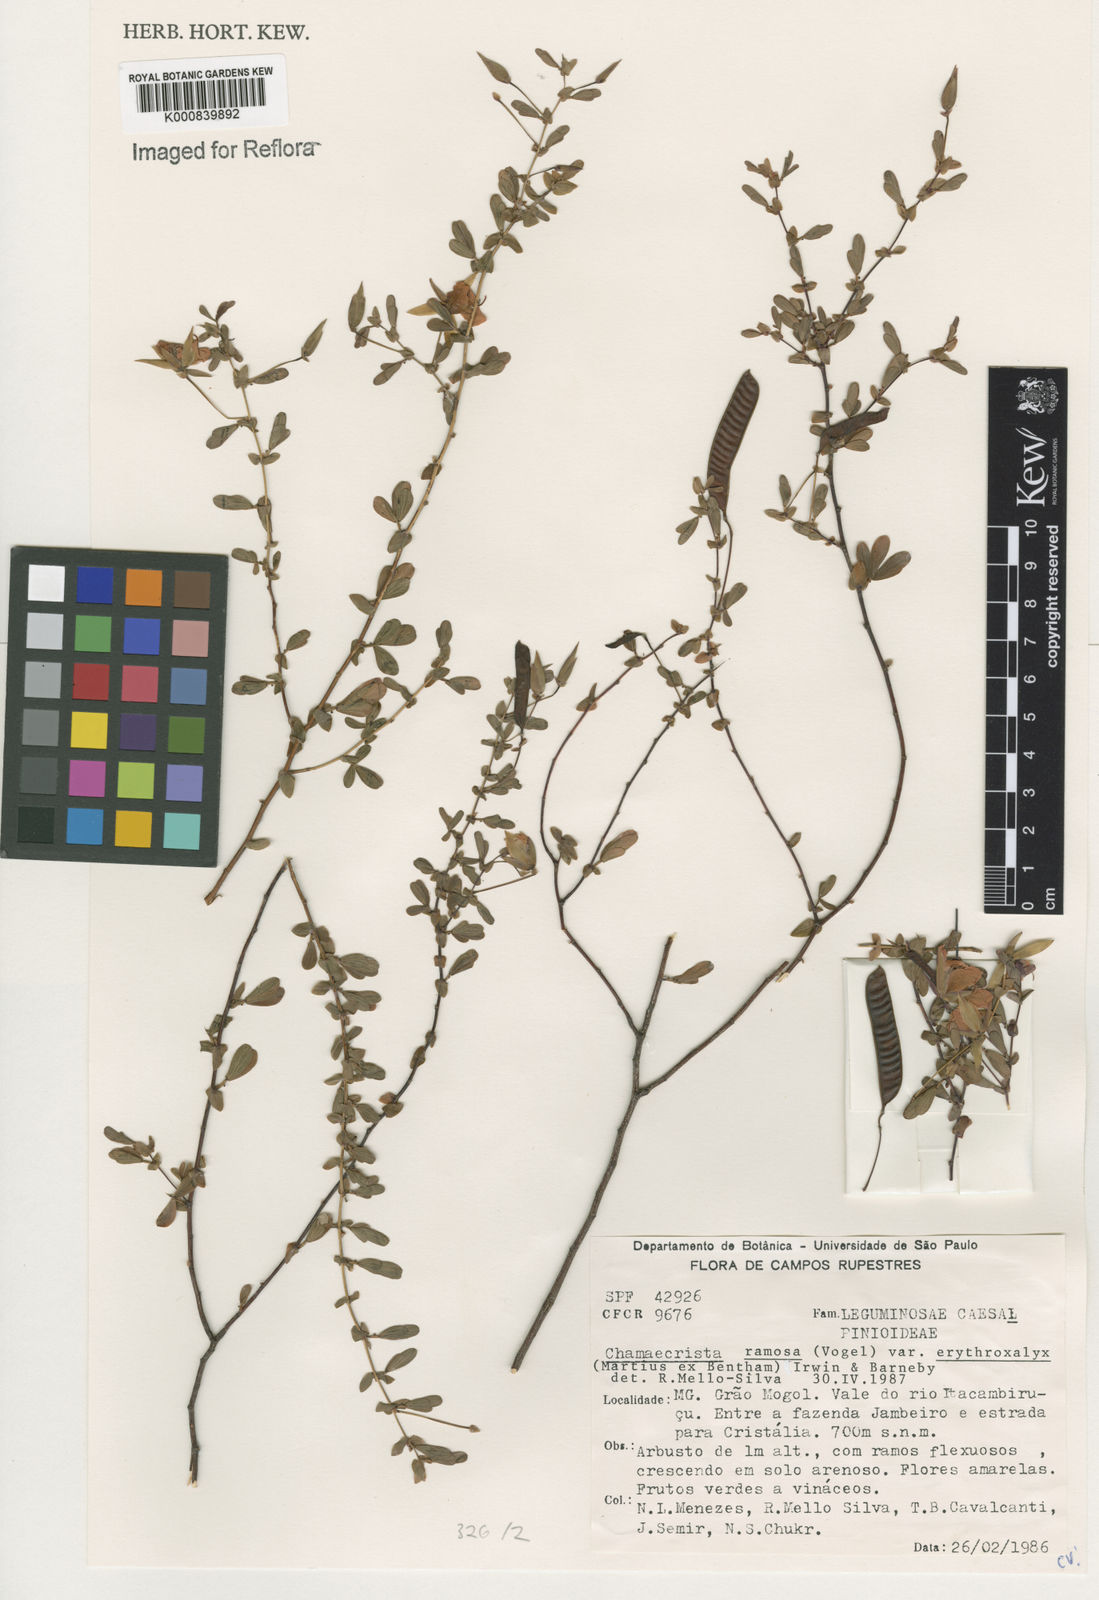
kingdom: Plantae
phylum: Tracheophyta
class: Magnoliopsida
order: Fabales
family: Fabaceae
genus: Chamaecrista
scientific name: Chamaecrista ramosa
